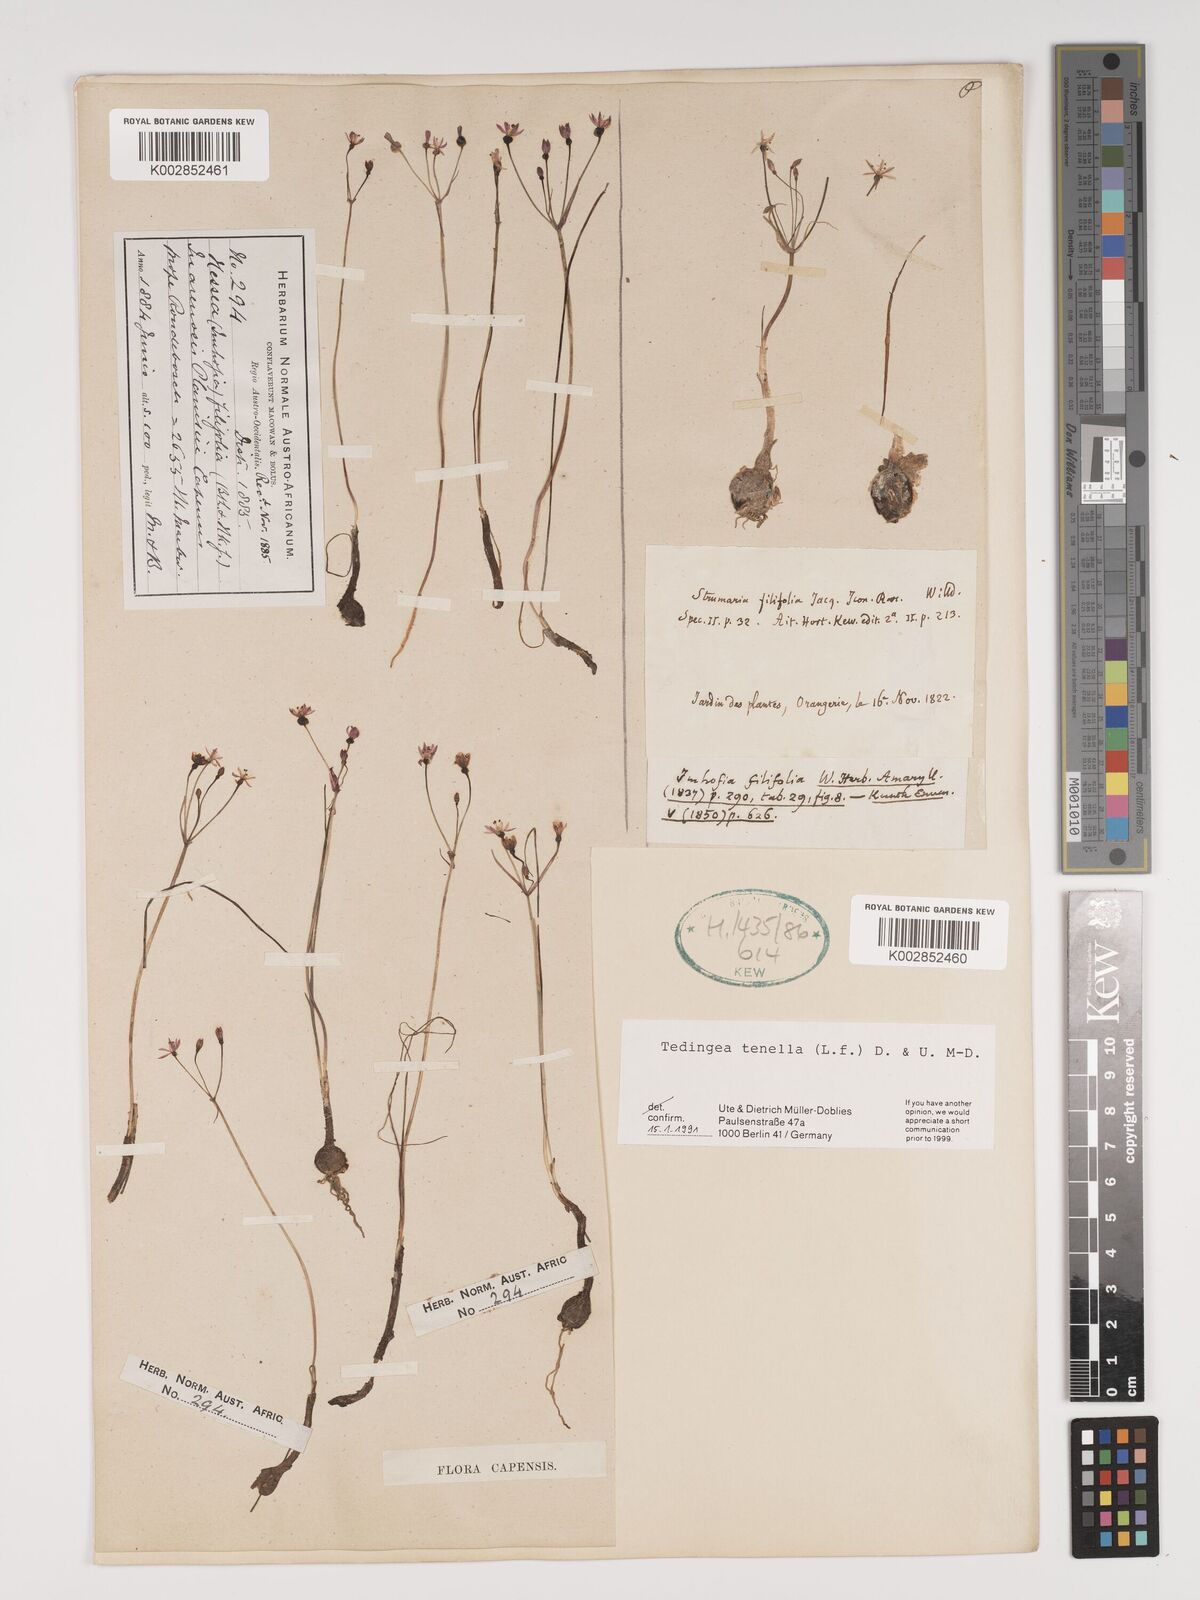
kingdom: Plantae
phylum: Tracheophyta
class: Liliopsida
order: Asparagales
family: Amaryllidaceae
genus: Strumaria
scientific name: Strumaria tenella
